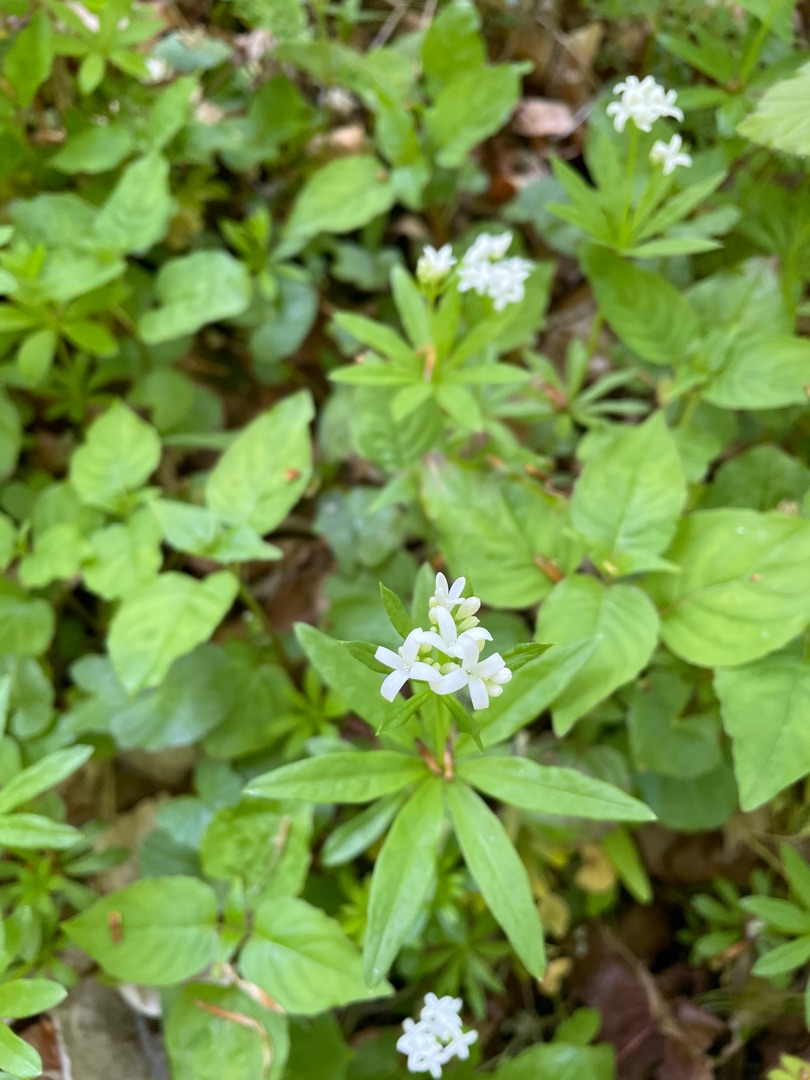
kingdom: Plantae
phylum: Tracheophyta
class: Magnoliopsida
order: Gentianales
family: Rubiaceae
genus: Galium
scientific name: Galium odoratum
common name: Skovmærke
